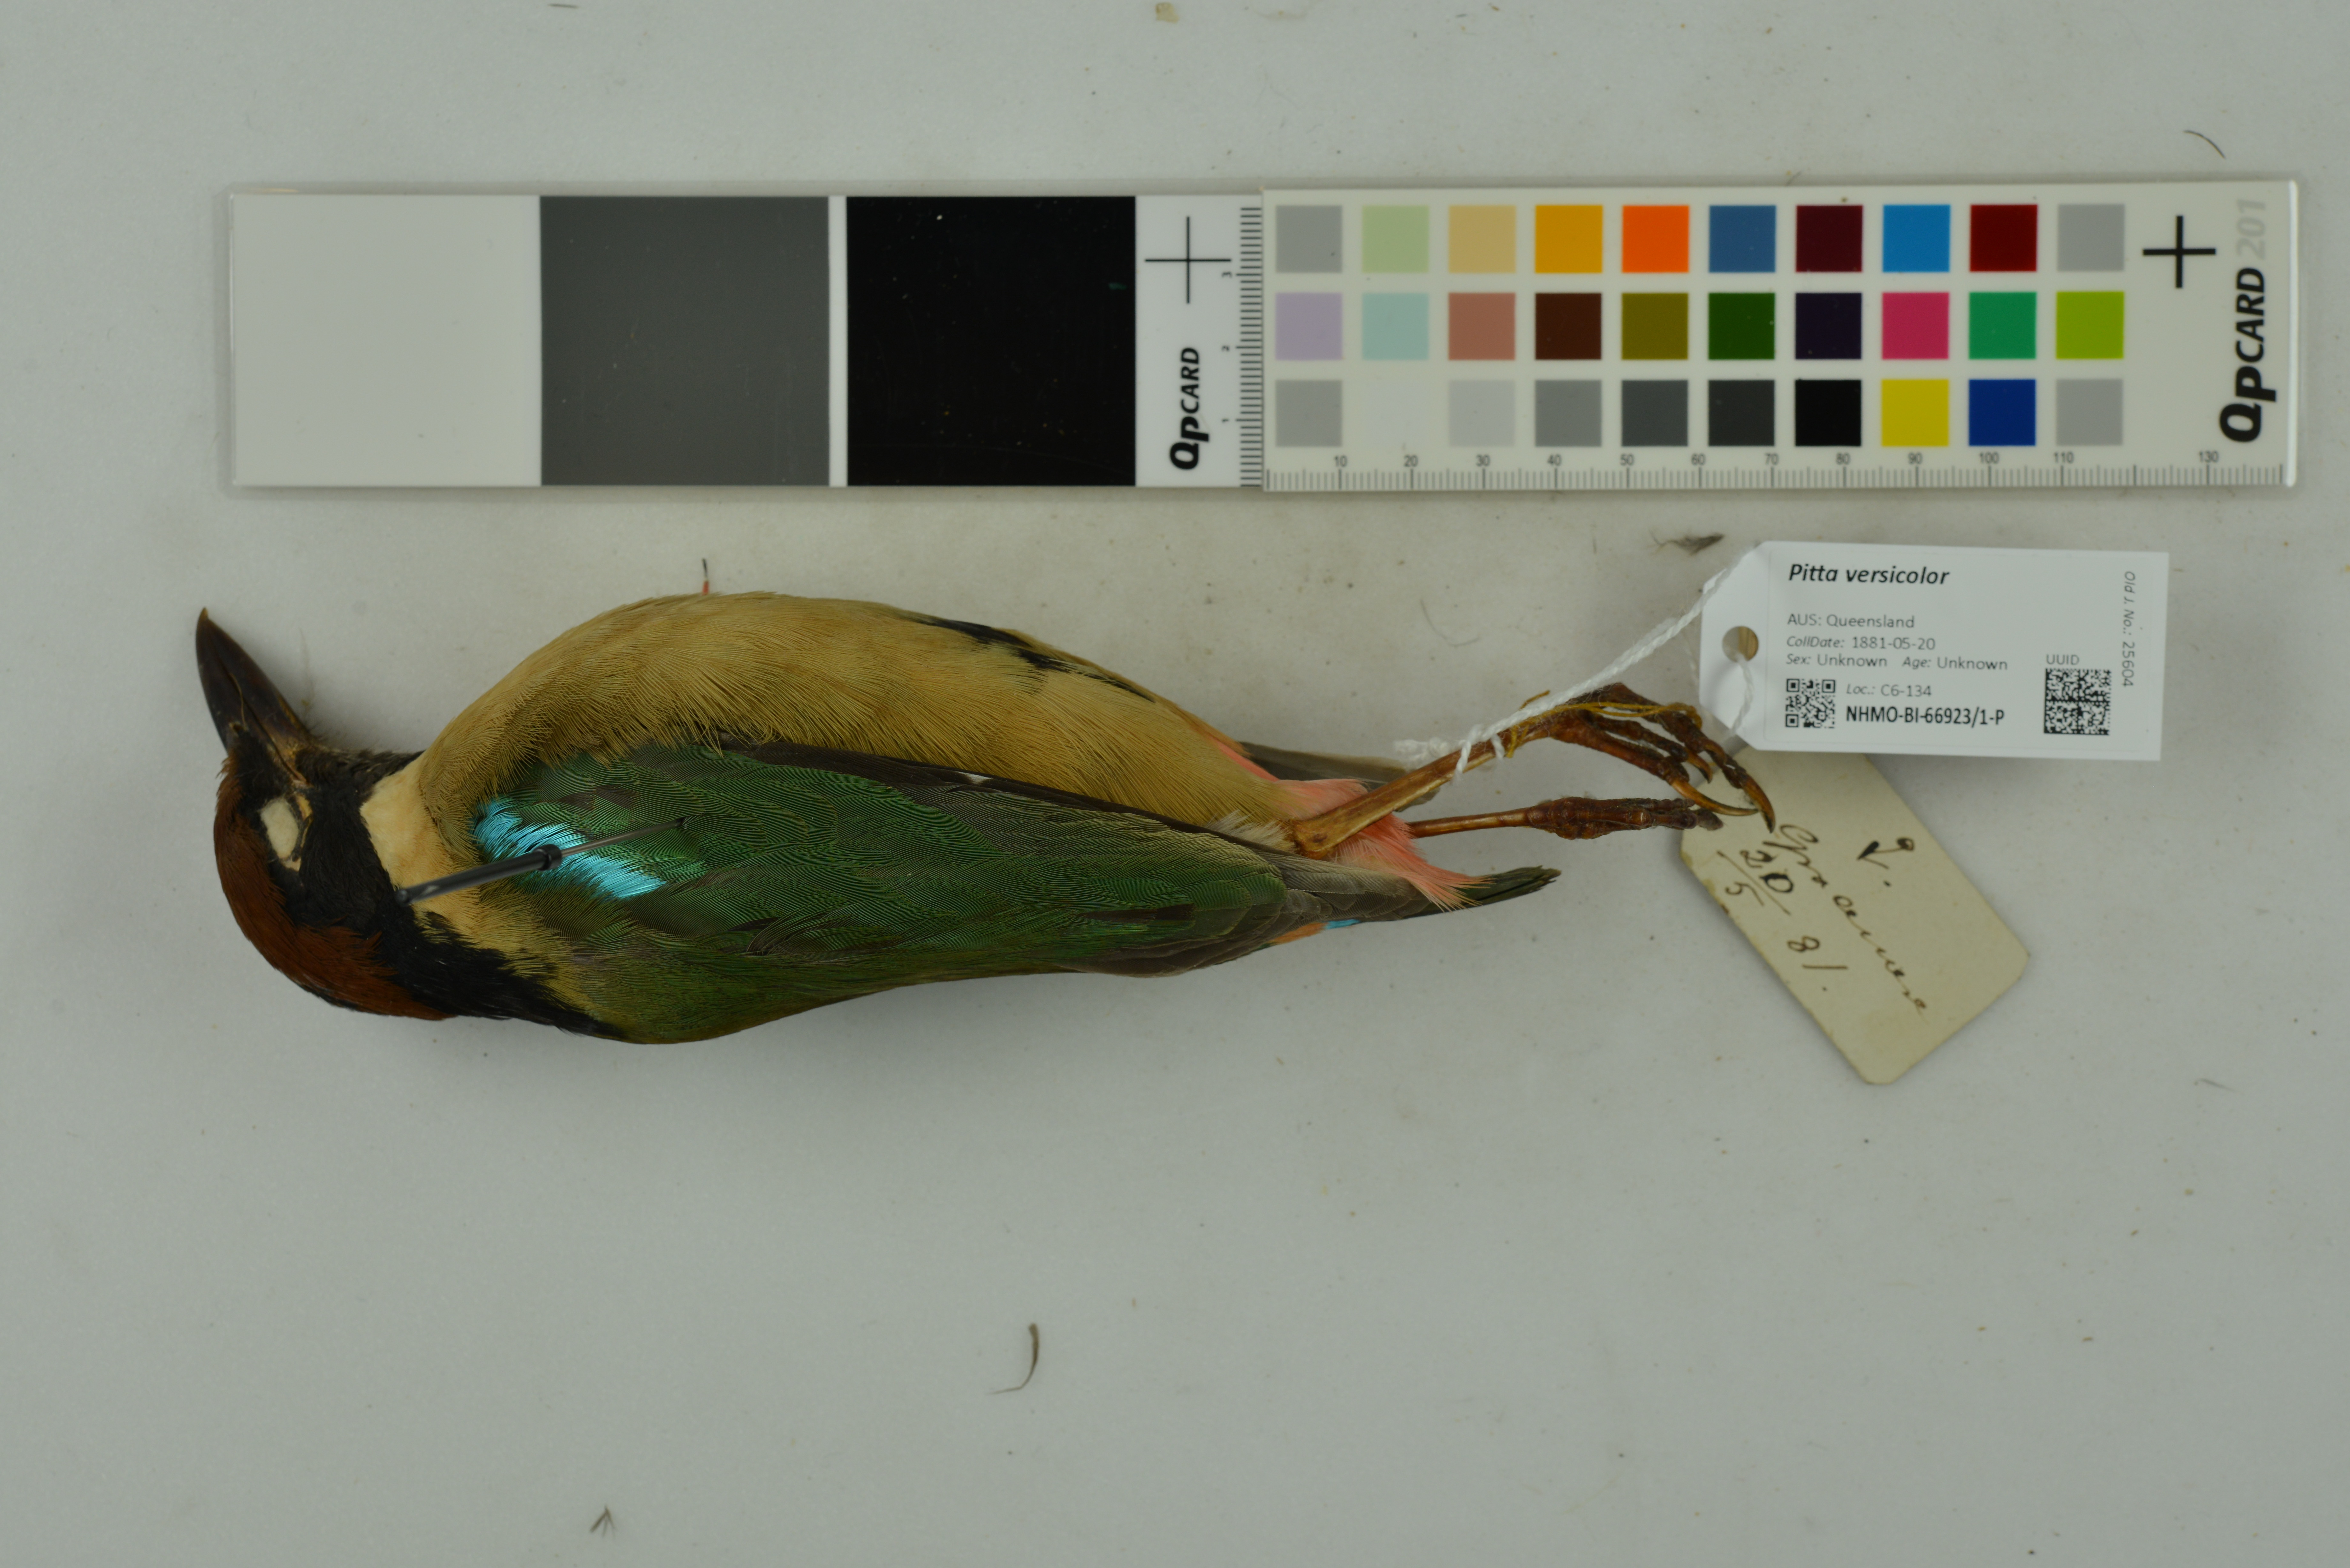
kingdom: Animalia
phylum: Chordata
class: Aves
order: Passeriformes
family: Pittidae
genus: Pitta
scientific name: Pitta versicolor
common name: Noisy pitta
